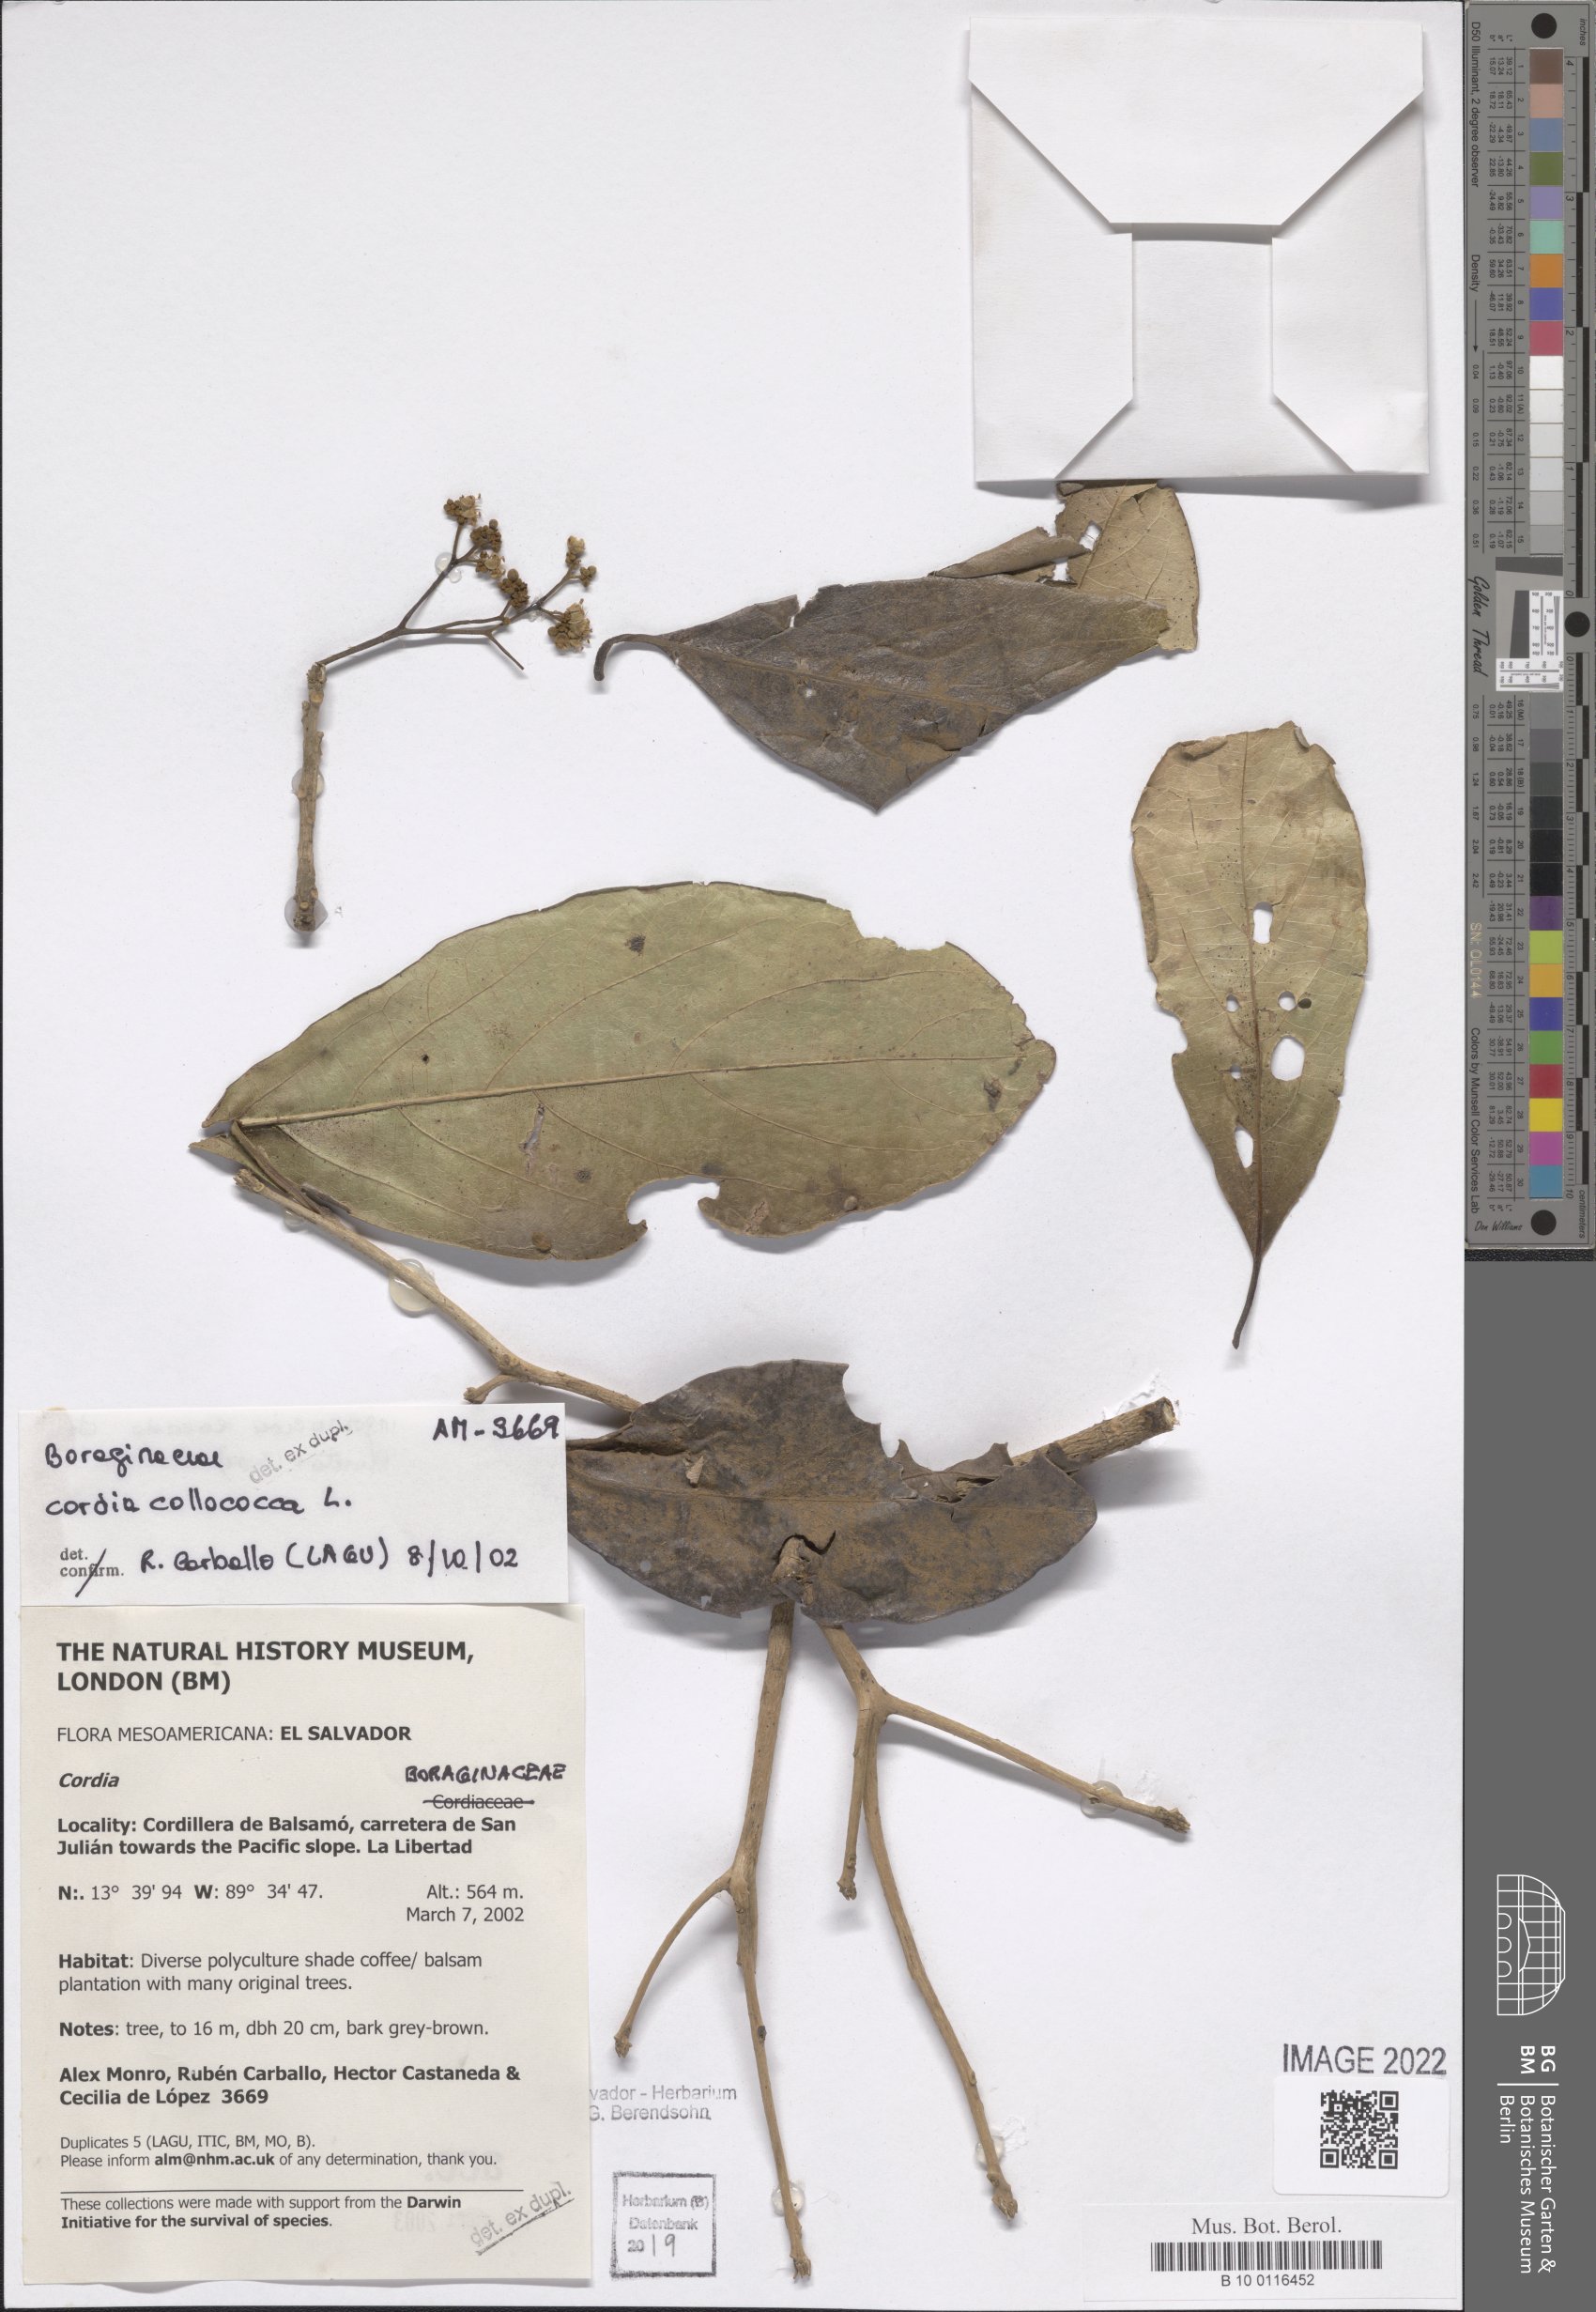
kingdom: Plantae
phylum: Tracheophyta
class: Magnoliopsida
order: Boraginales
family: Cordiaceae
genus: Cordia
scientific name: Cordia collococca
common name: Clammy cherry
